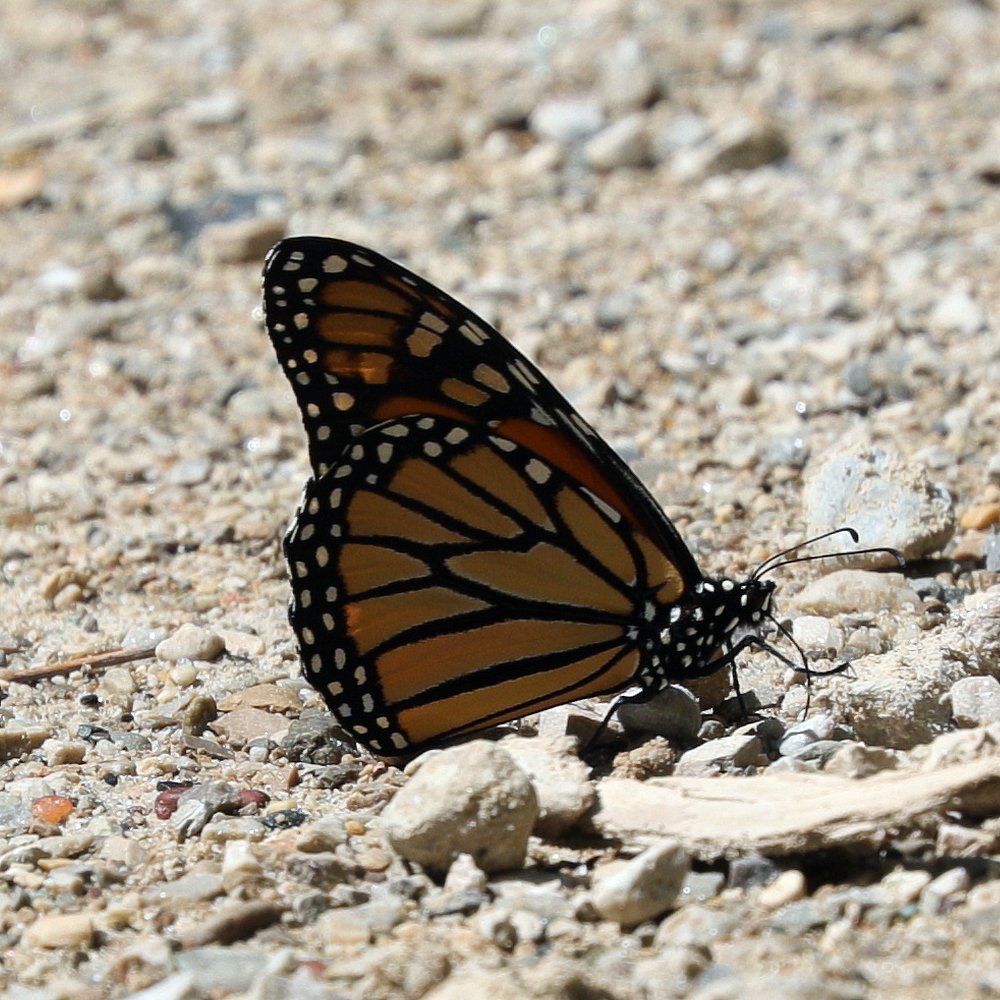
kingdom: Animalia
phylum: Arthropoda
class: Insecta
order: Lepidoptera
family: Nymphalidae
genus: Danaus
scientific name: Danaus plexippus
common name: Monarch
